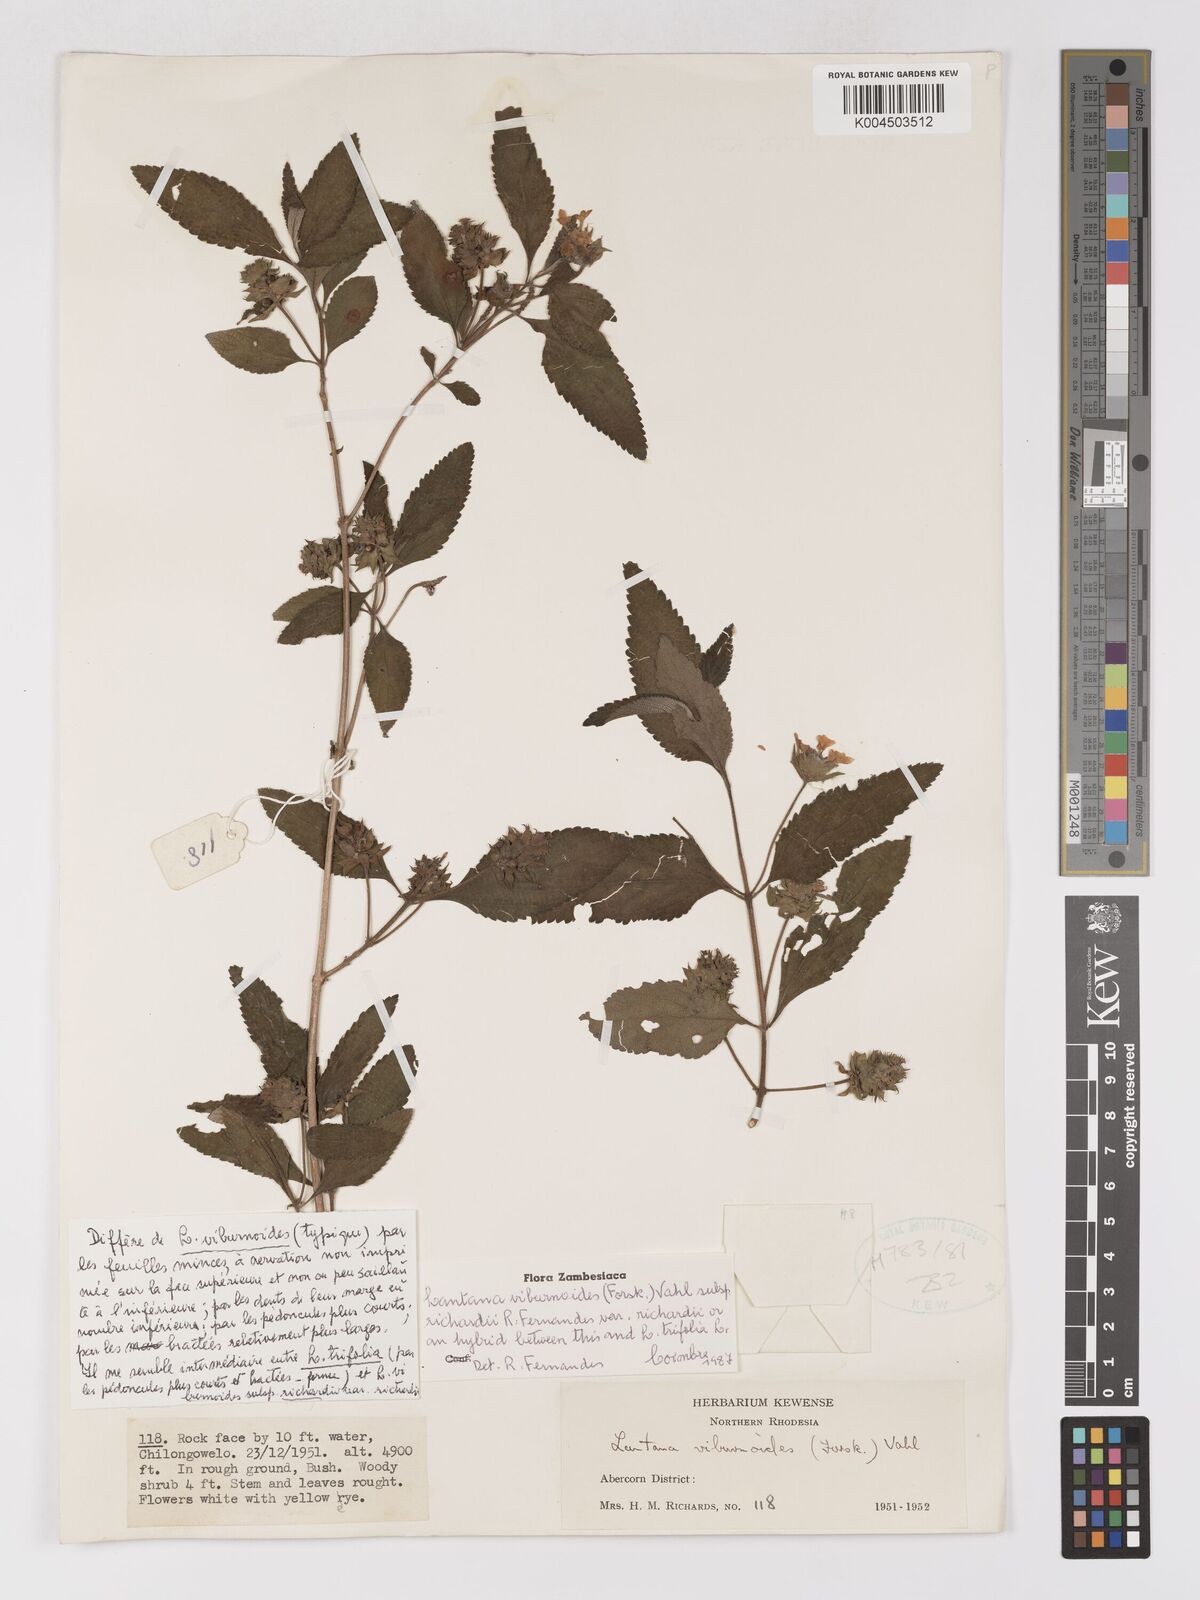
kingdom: Plantae
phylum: Tracheophyta
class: Magnoliopsida
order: Lamiales
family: Verbenaceae
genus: Lantana
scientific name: Lantana
